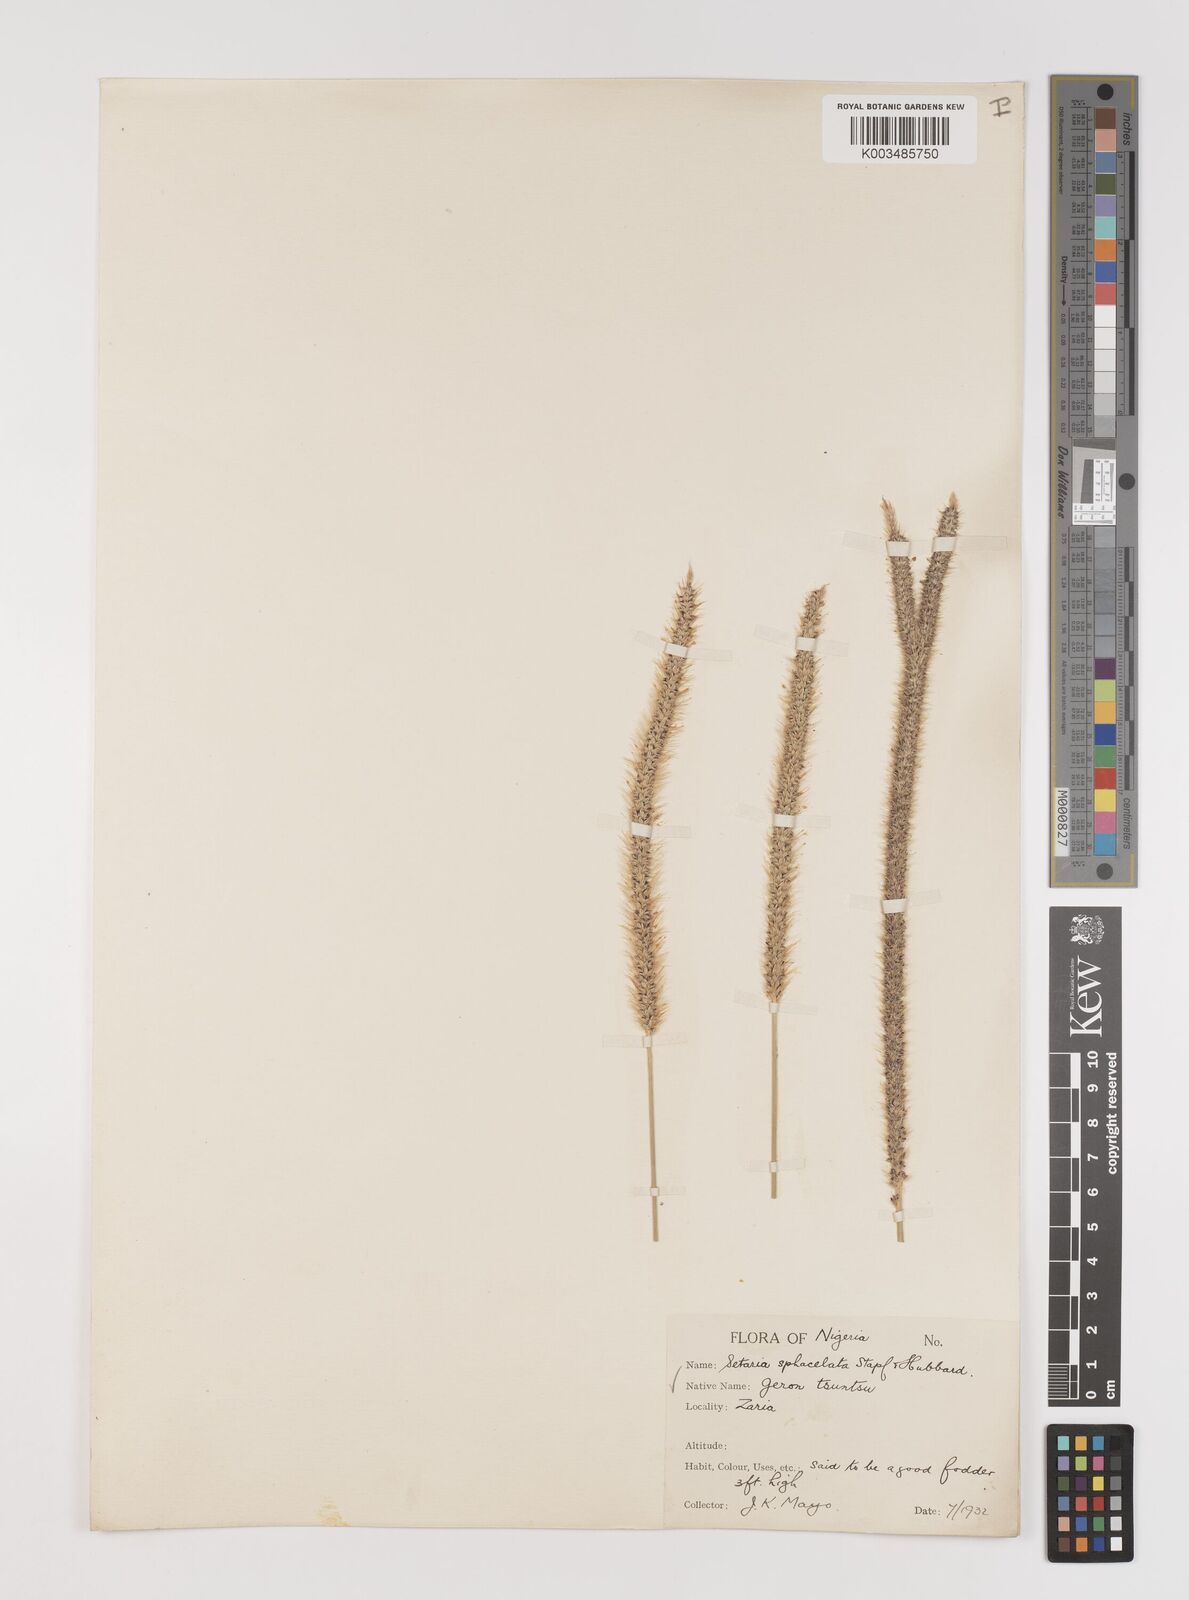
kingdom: Plantae
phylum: Tracheophyta
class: Liliopsida
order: Poales
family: Poaceae
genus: Setaria
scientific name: Setaria sphacelata
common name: African bristlegrass
